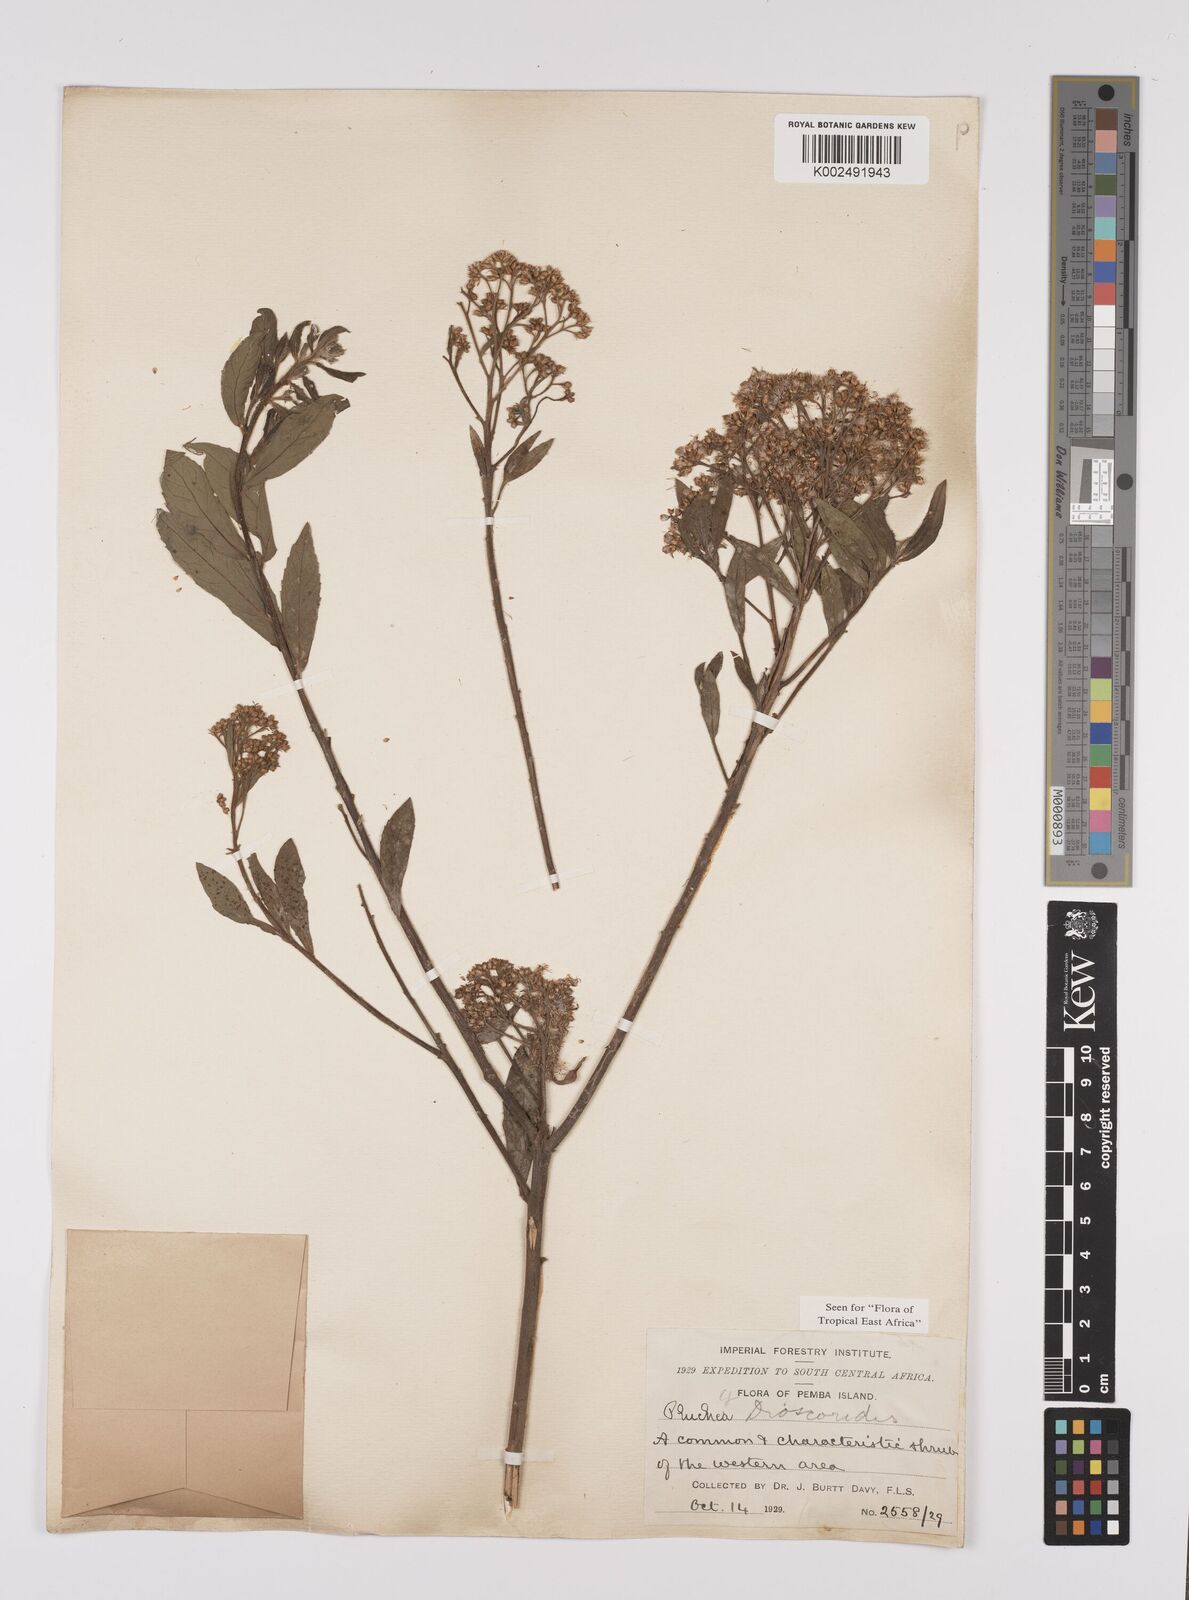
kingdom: Plantae
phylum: Tracheophyta
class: Magnoliopsida
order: Asterales
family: Asteraceae
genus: Pluchea
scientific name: Pluchea dioscoridis
